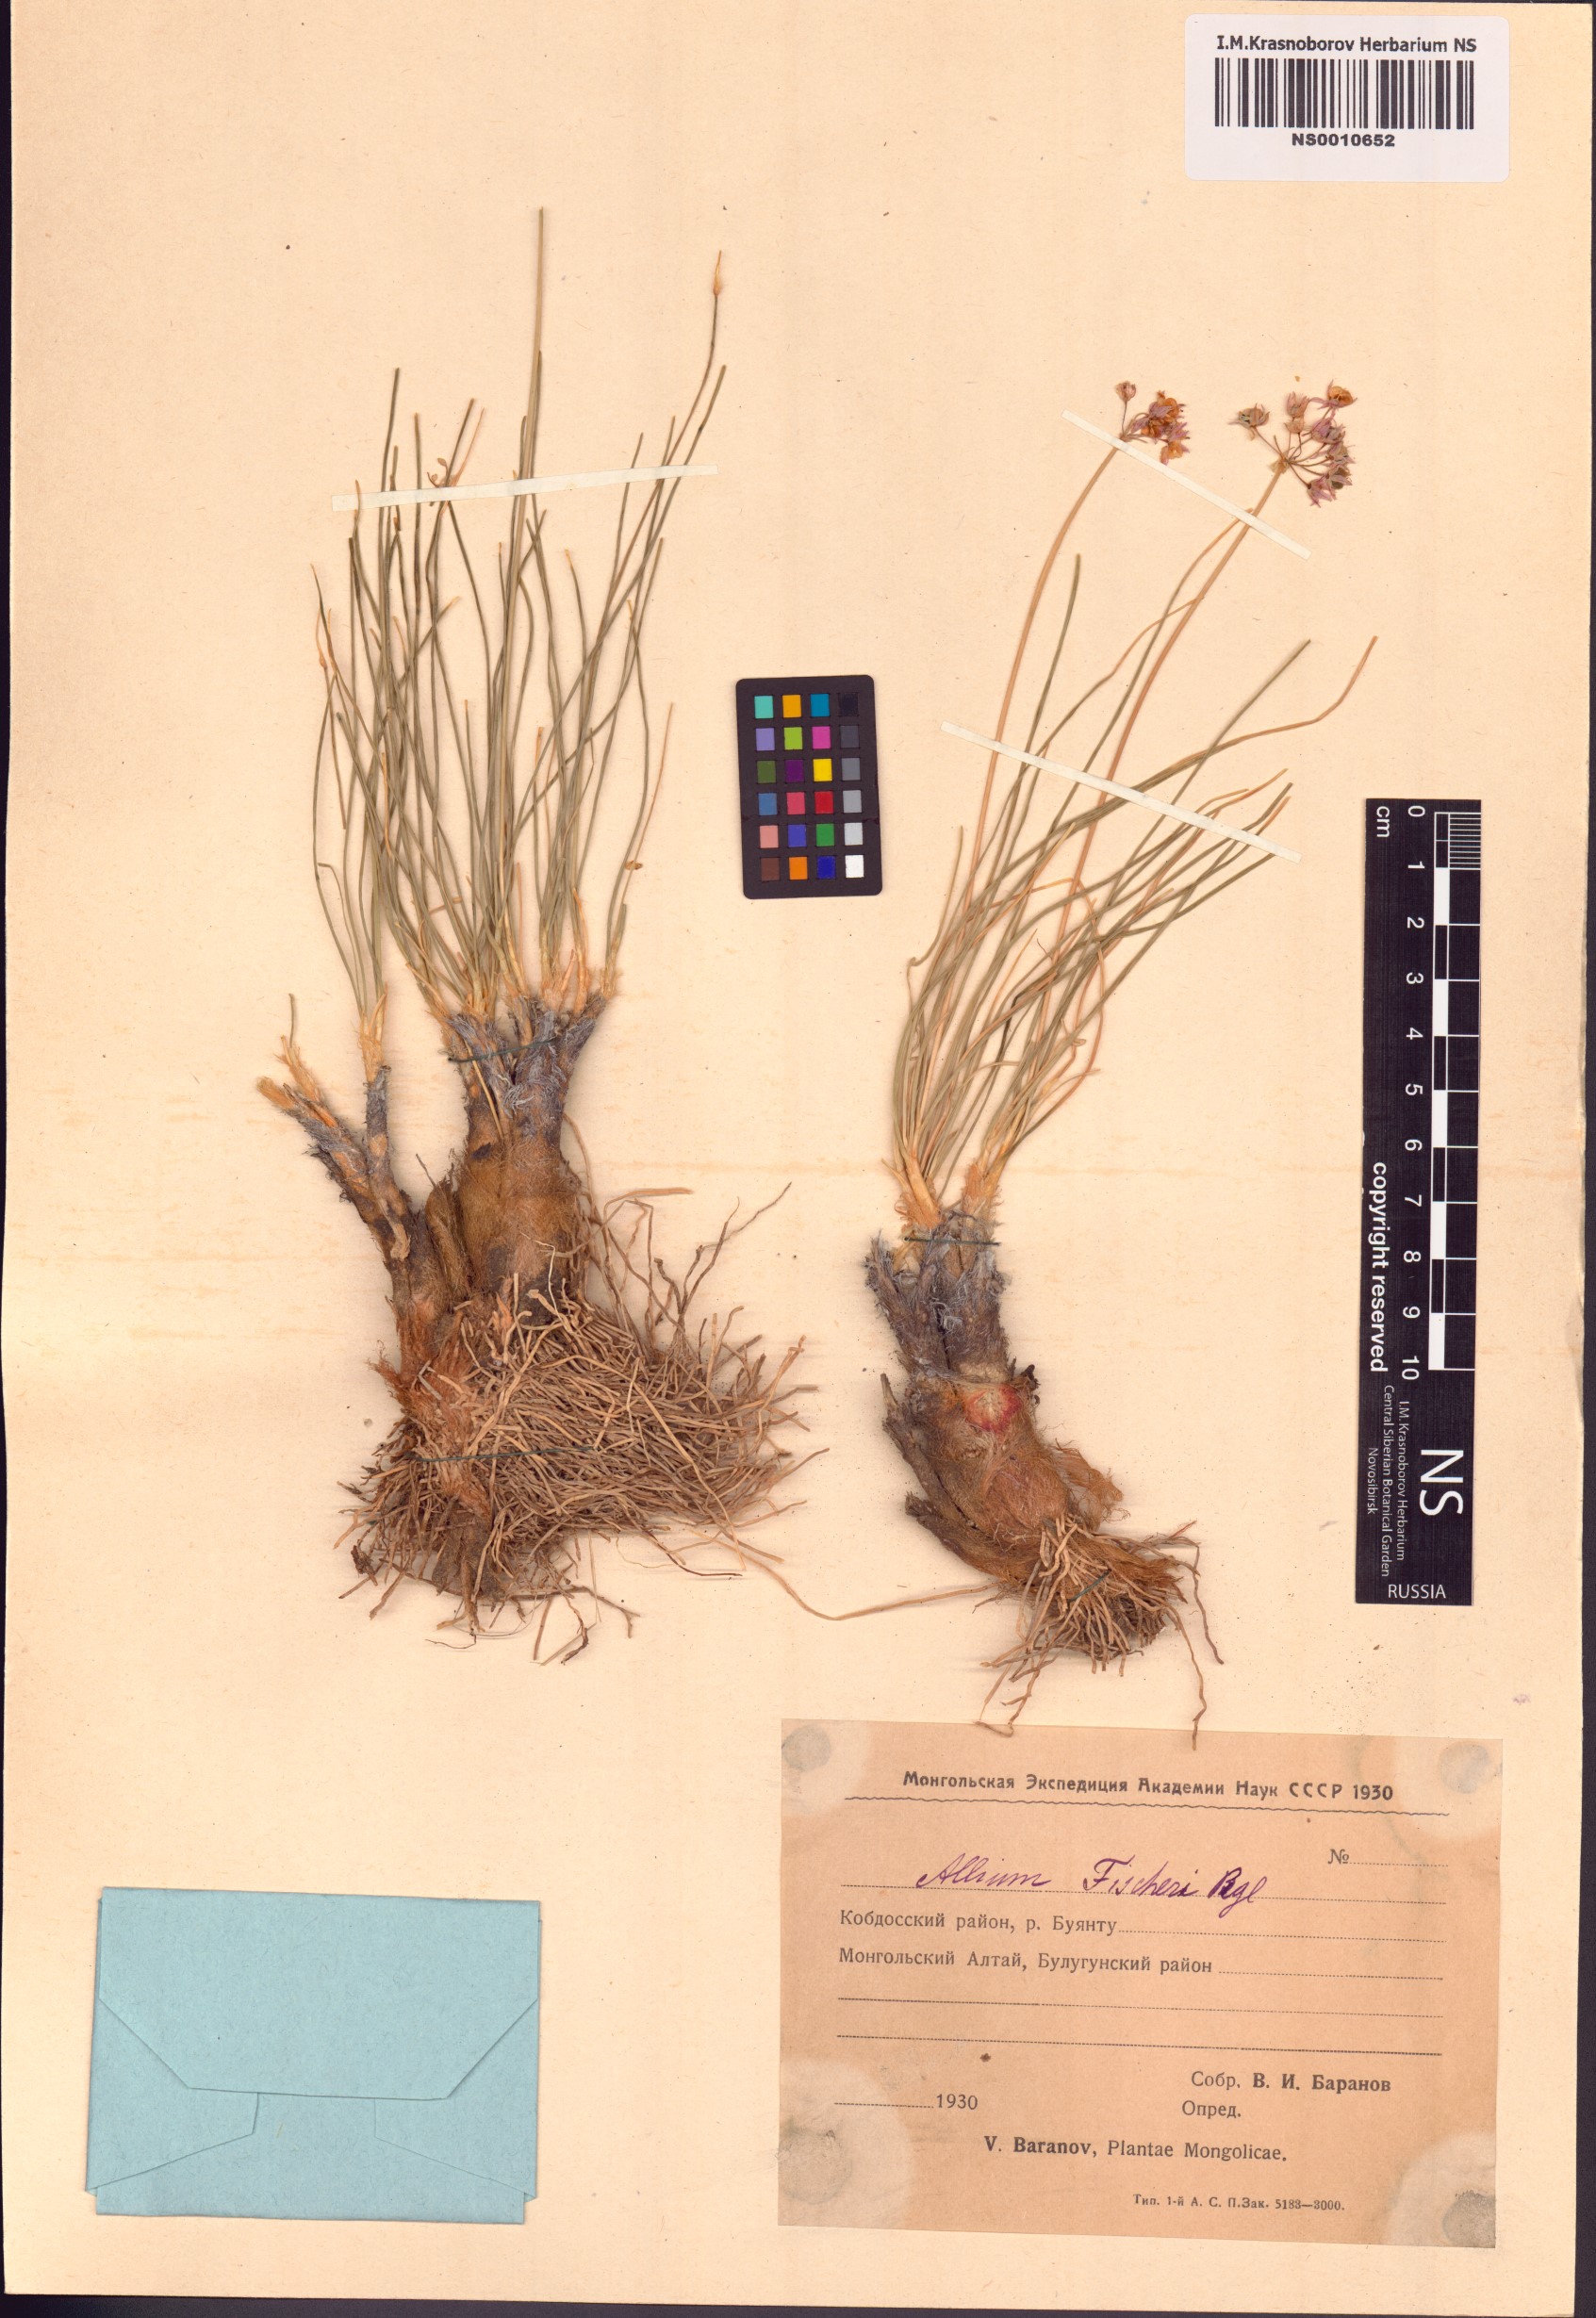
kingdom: Plantae
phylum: Tracheophyta
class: Liliopsida
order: Asparagales
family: Amaryllidaceae
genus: Allium
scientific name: Allium eduardi
